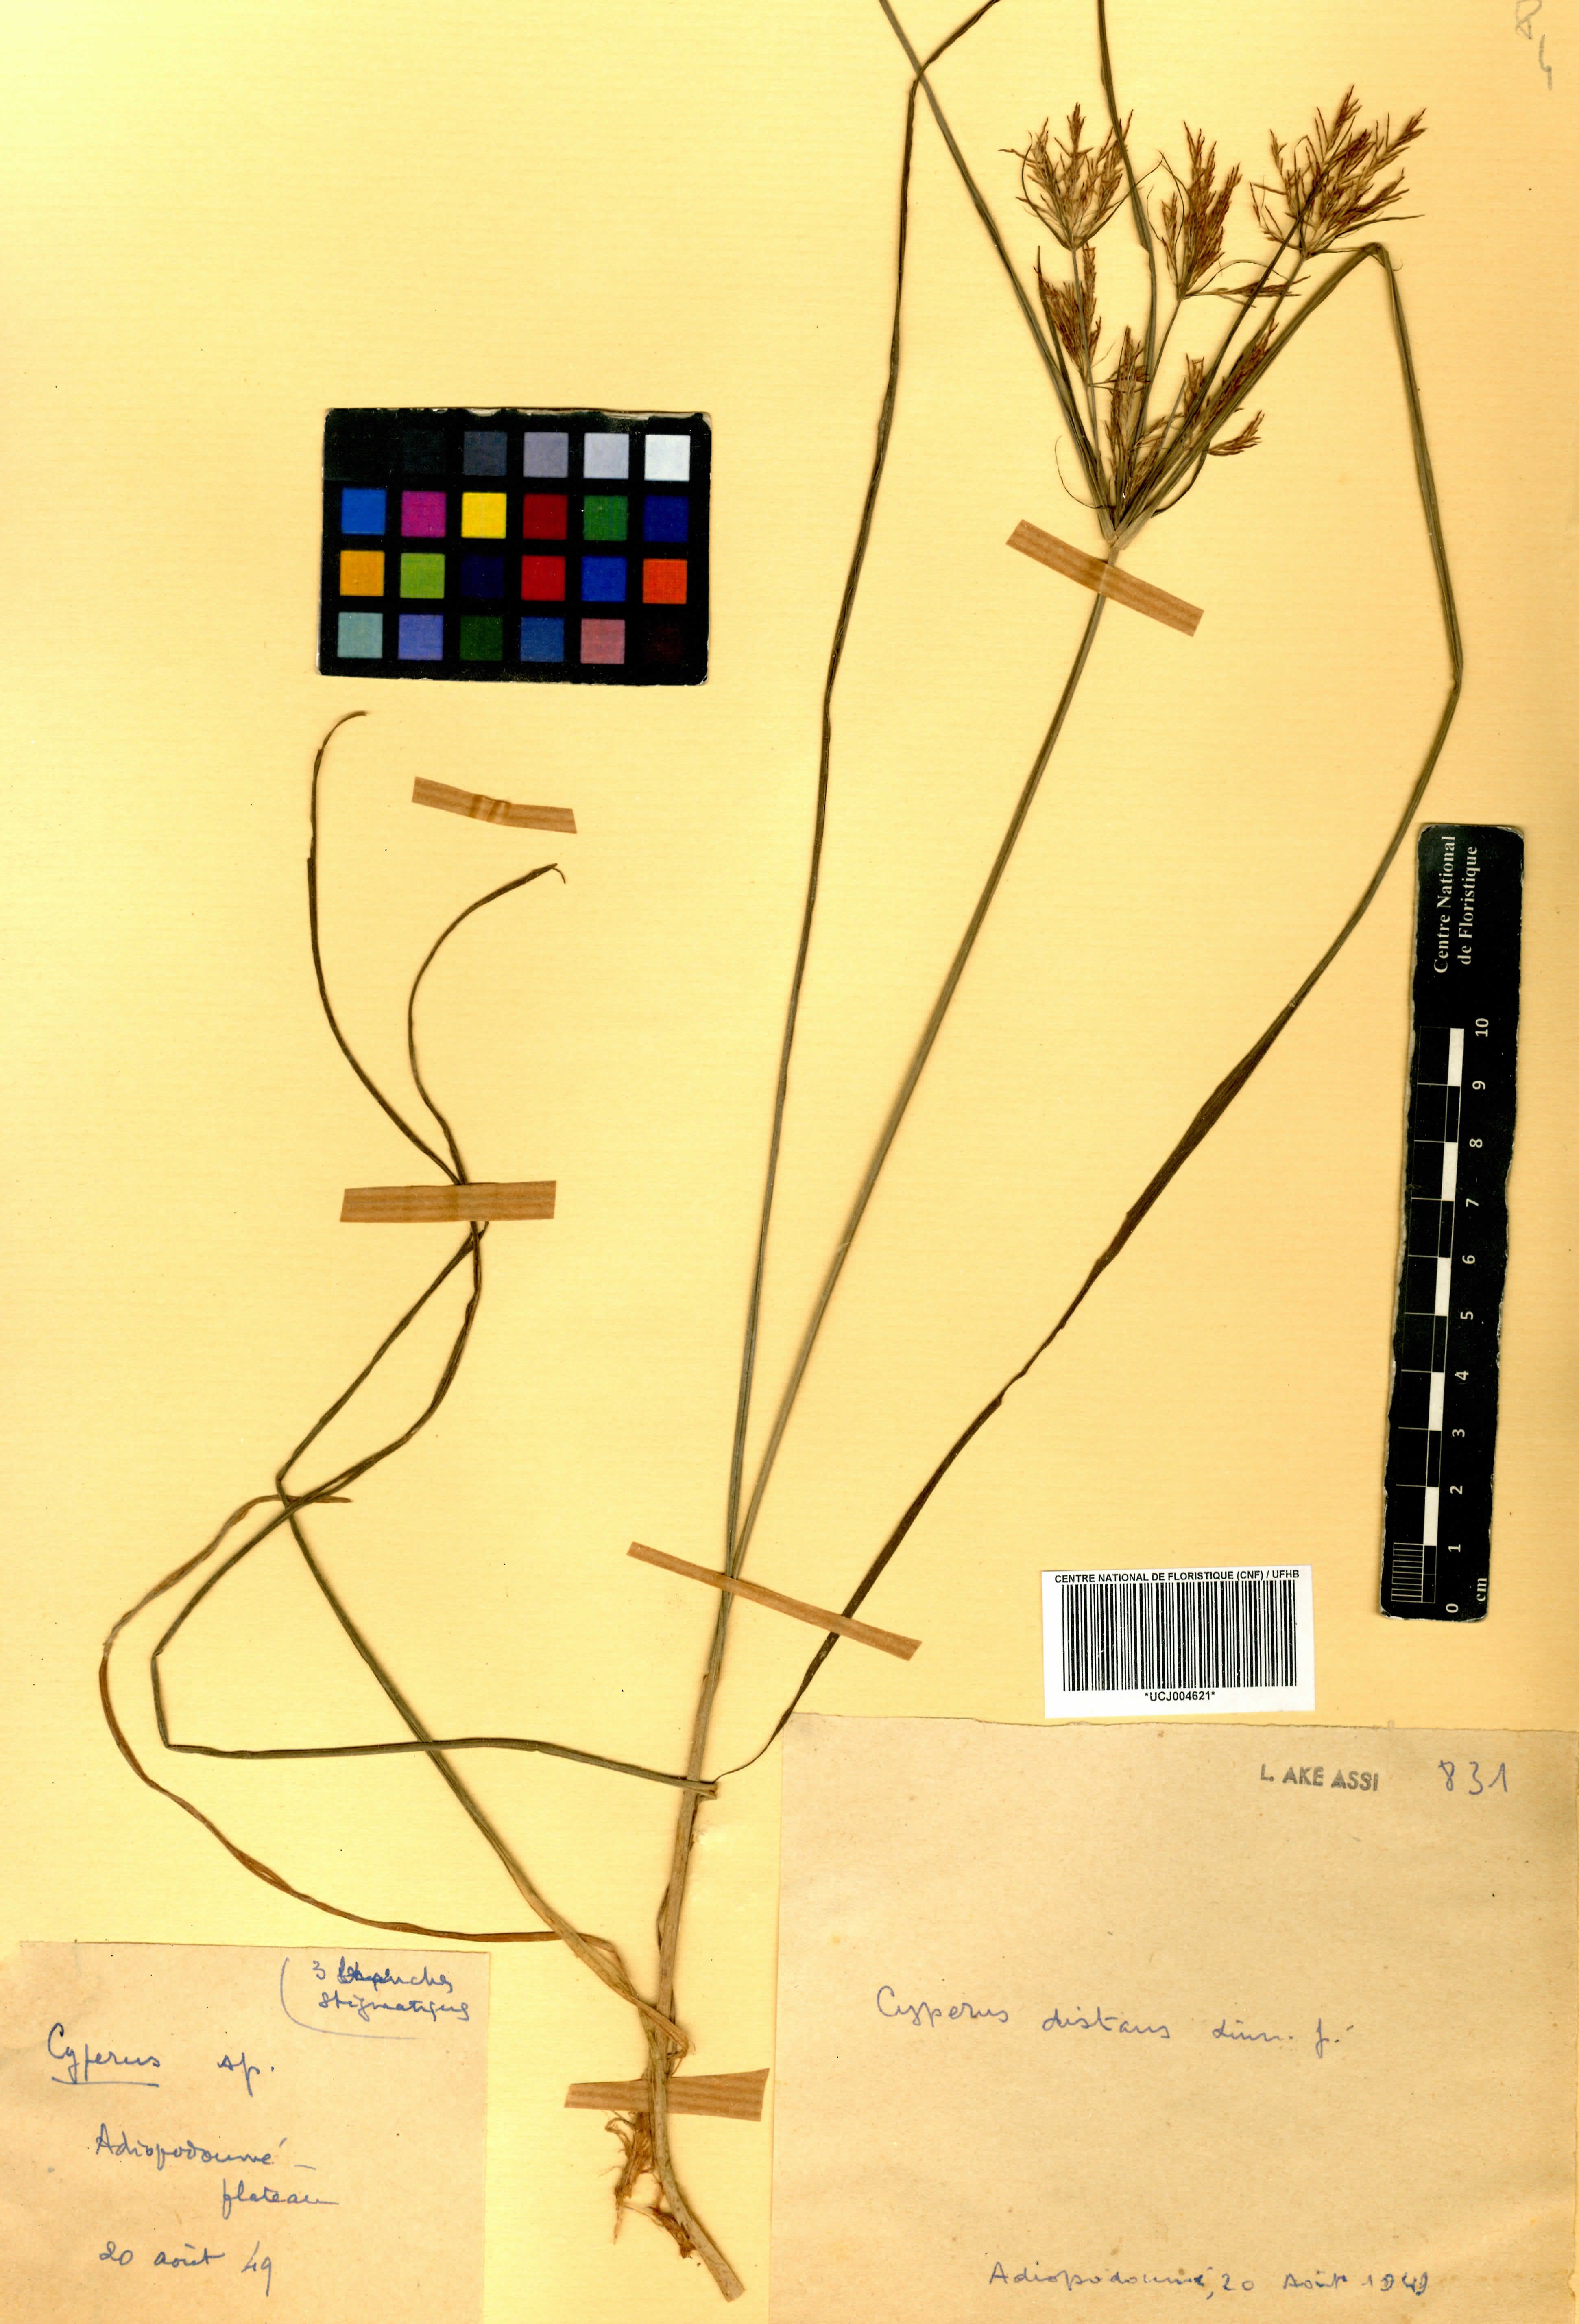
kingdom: Plantae
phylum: Tracheophyta
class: Liliopsida
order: Poales
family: Cyperaceae
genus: Cyperus
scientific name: Cyperus distans
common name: Slender cyperus
